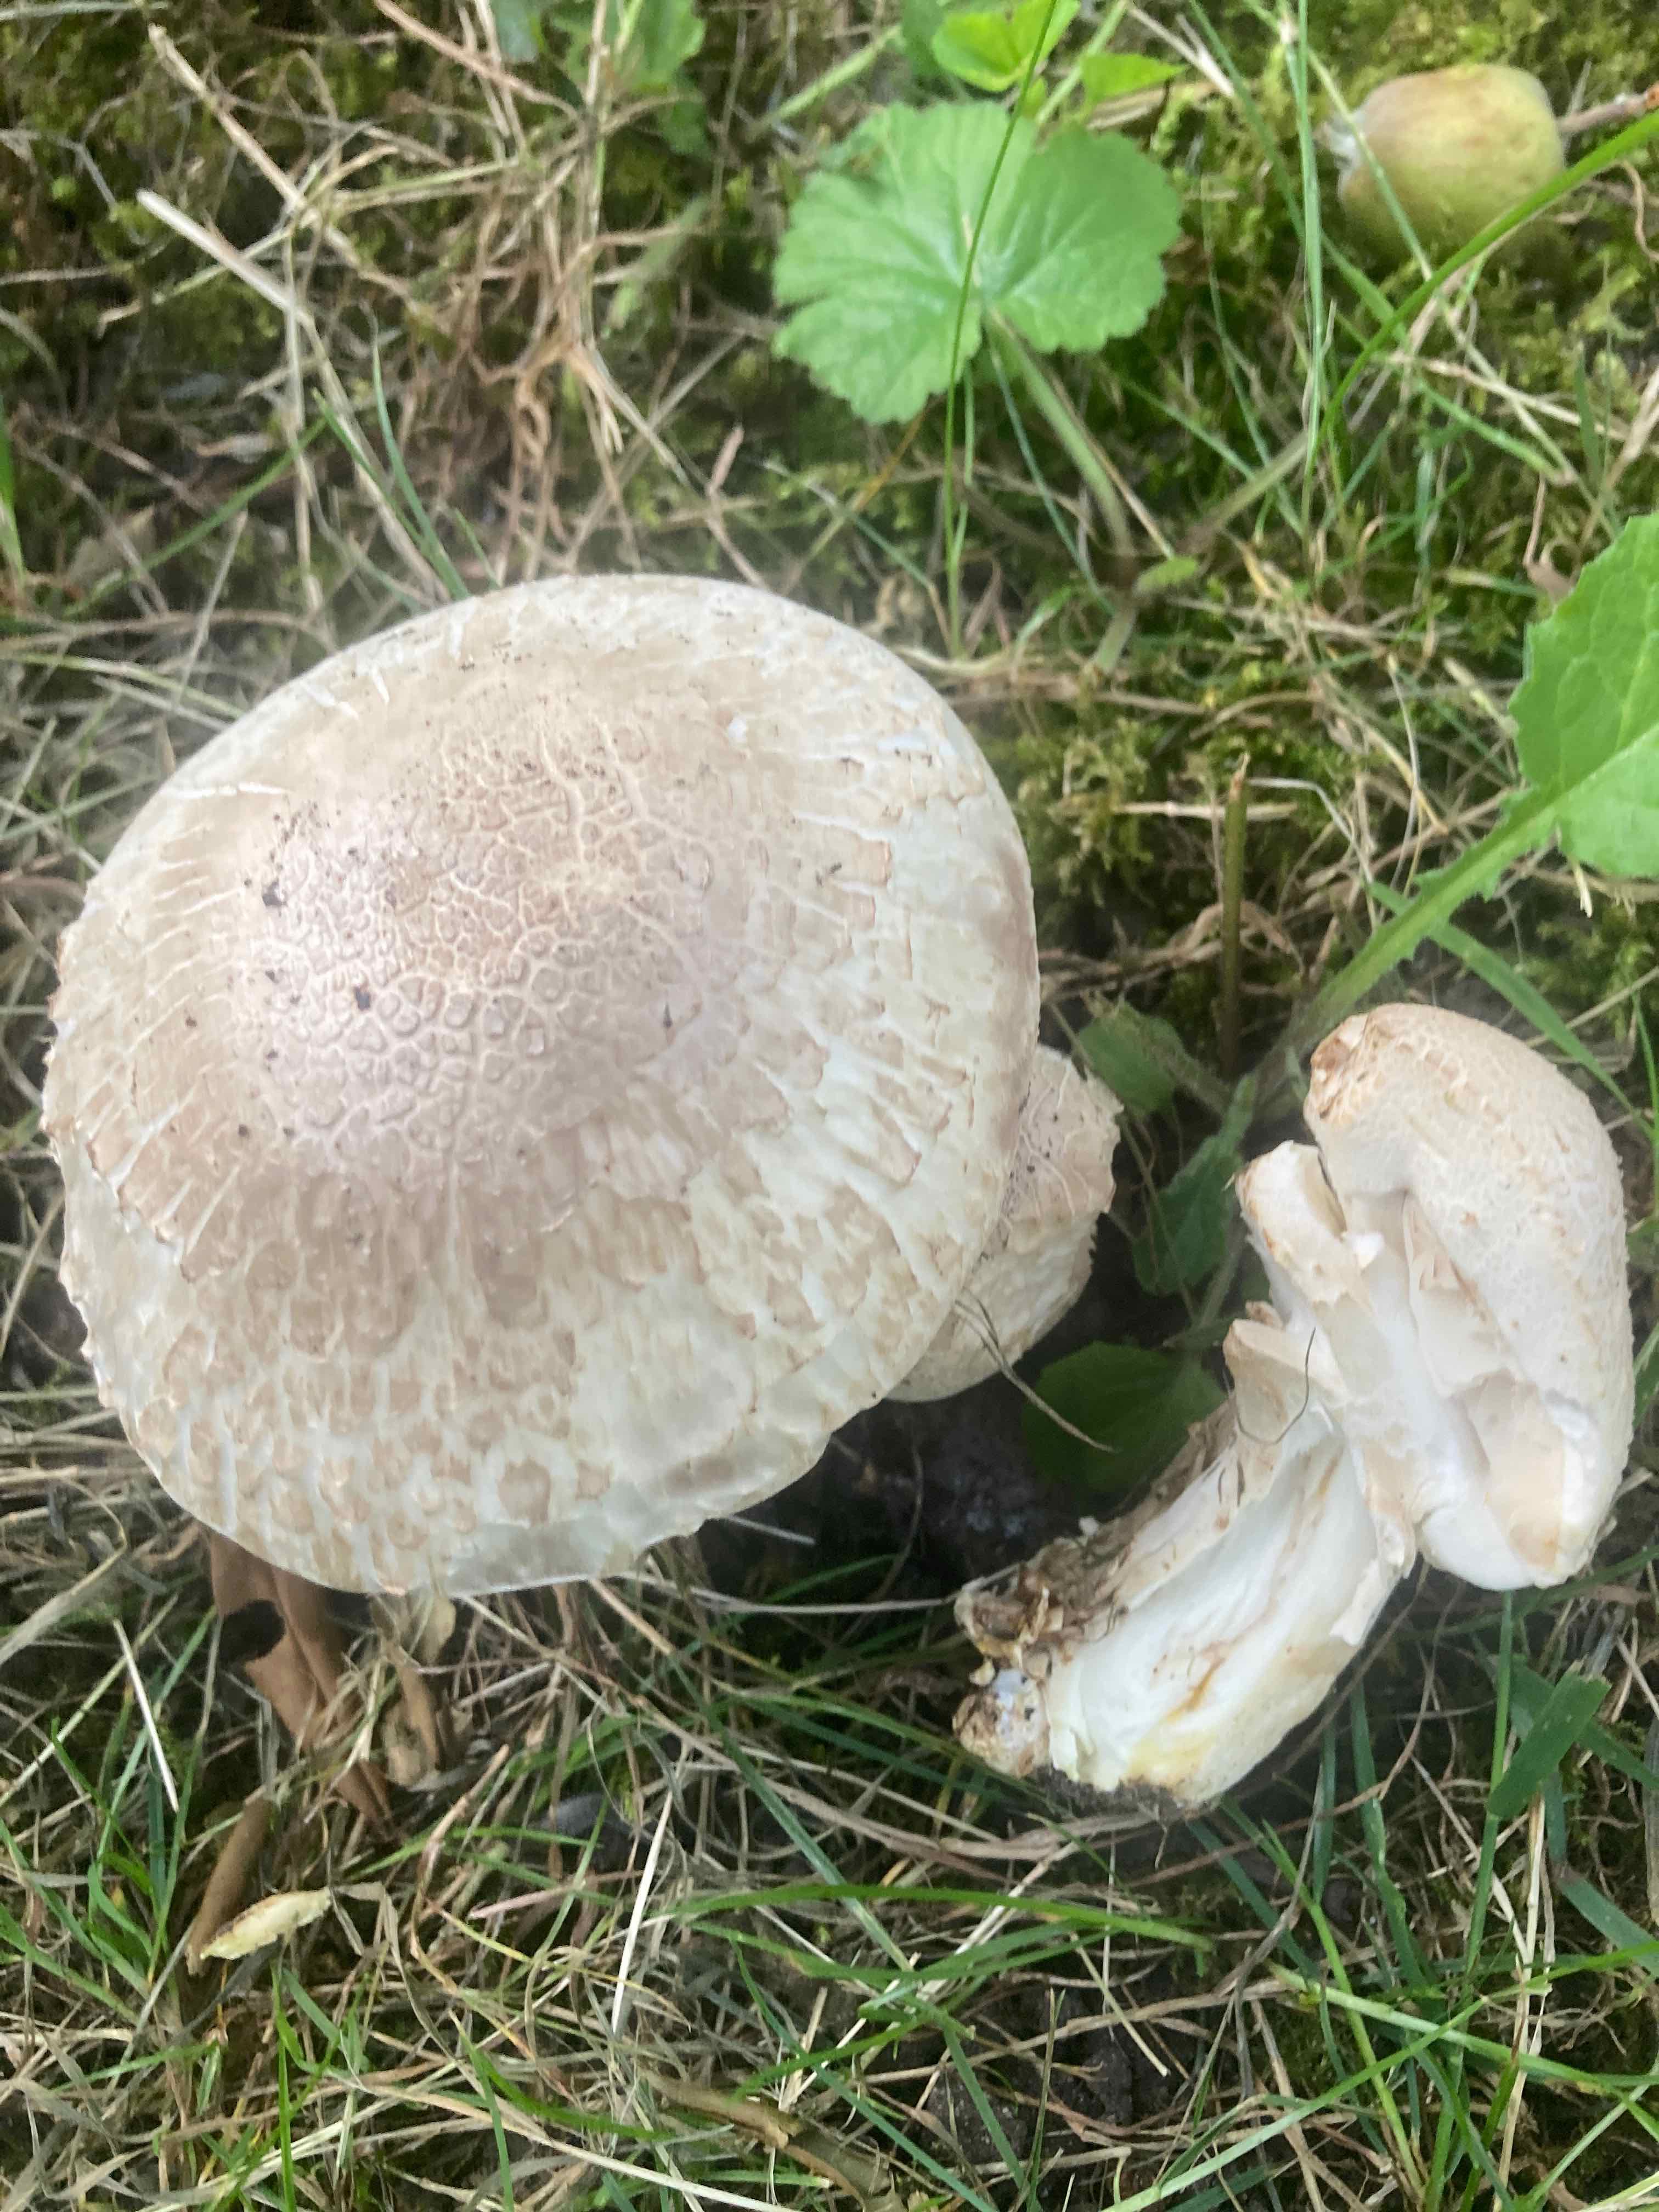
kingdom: Fungi
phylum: Basidiomycota
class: Agaricomycetes
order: Agaricales
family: Agaricaceae
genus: Agaricus
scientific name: Agaricus xanthodermus
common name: karbol-champignon
